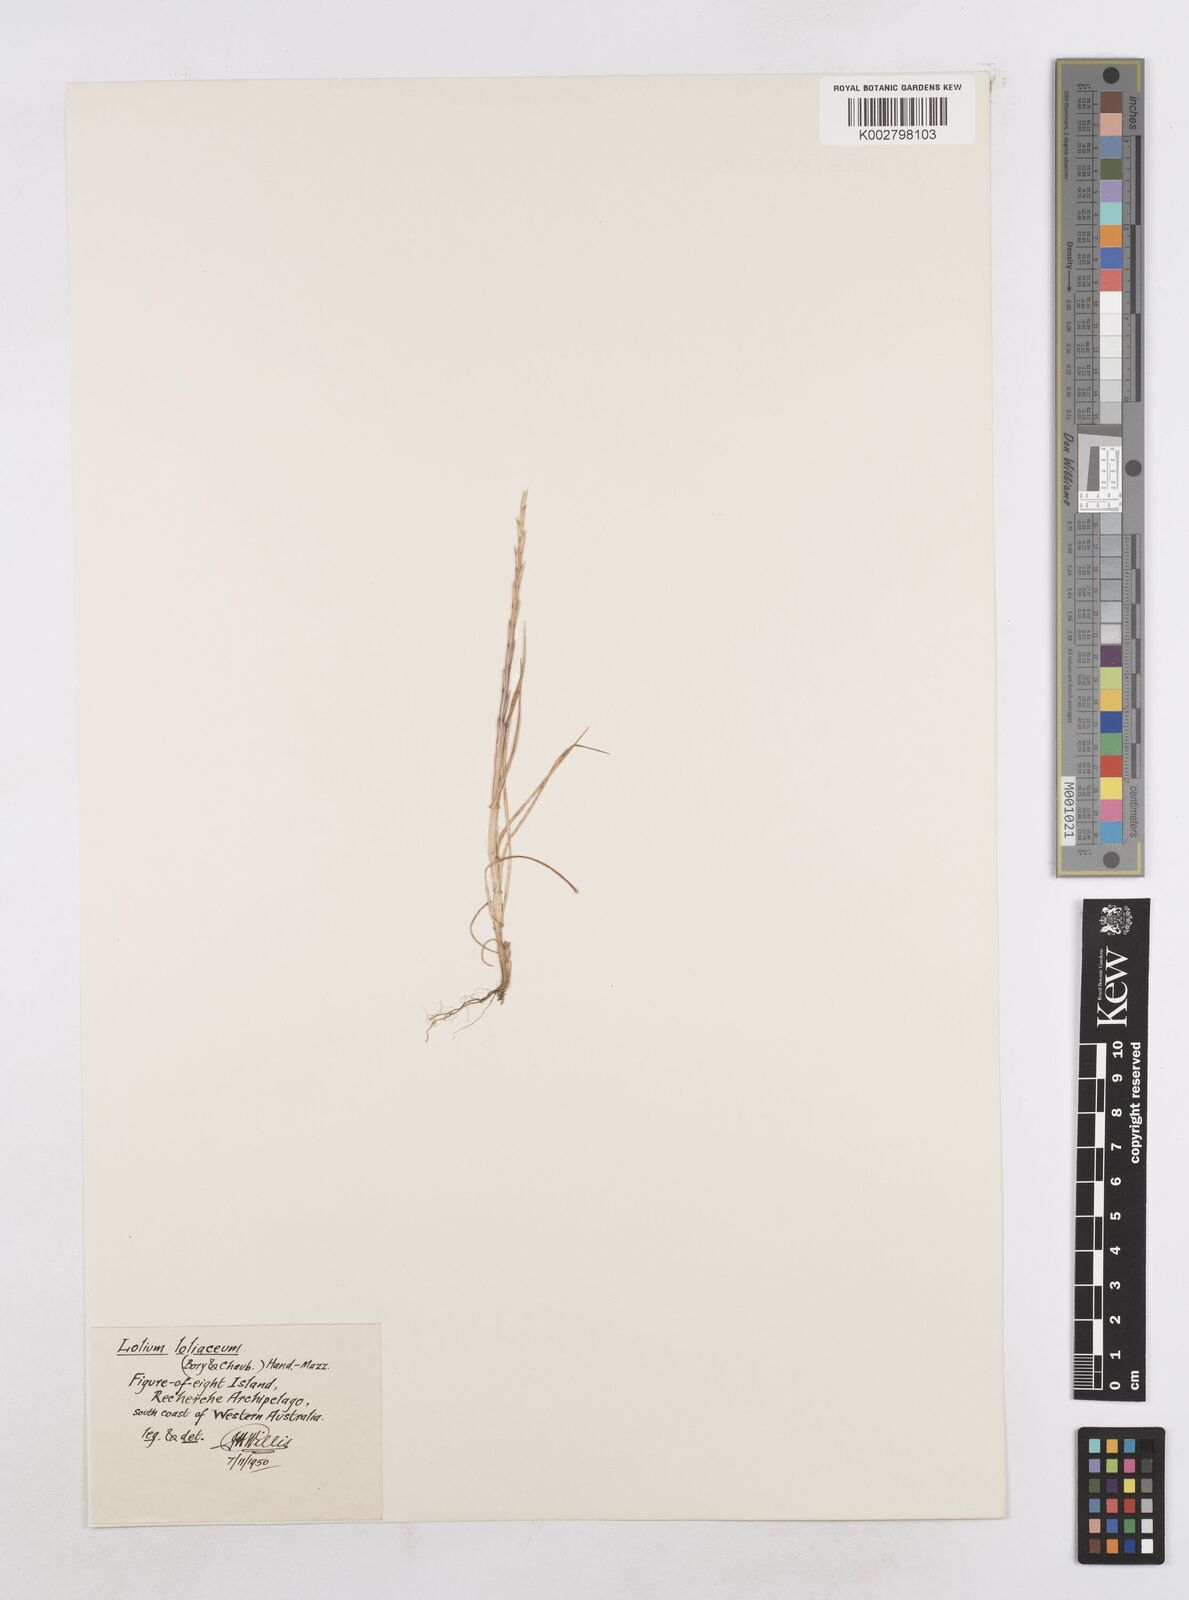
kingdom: Plantae
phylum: Tracheophyta
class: Liliopsida
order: Poales
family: Poaceae
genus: Lolium
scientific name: Lolium
